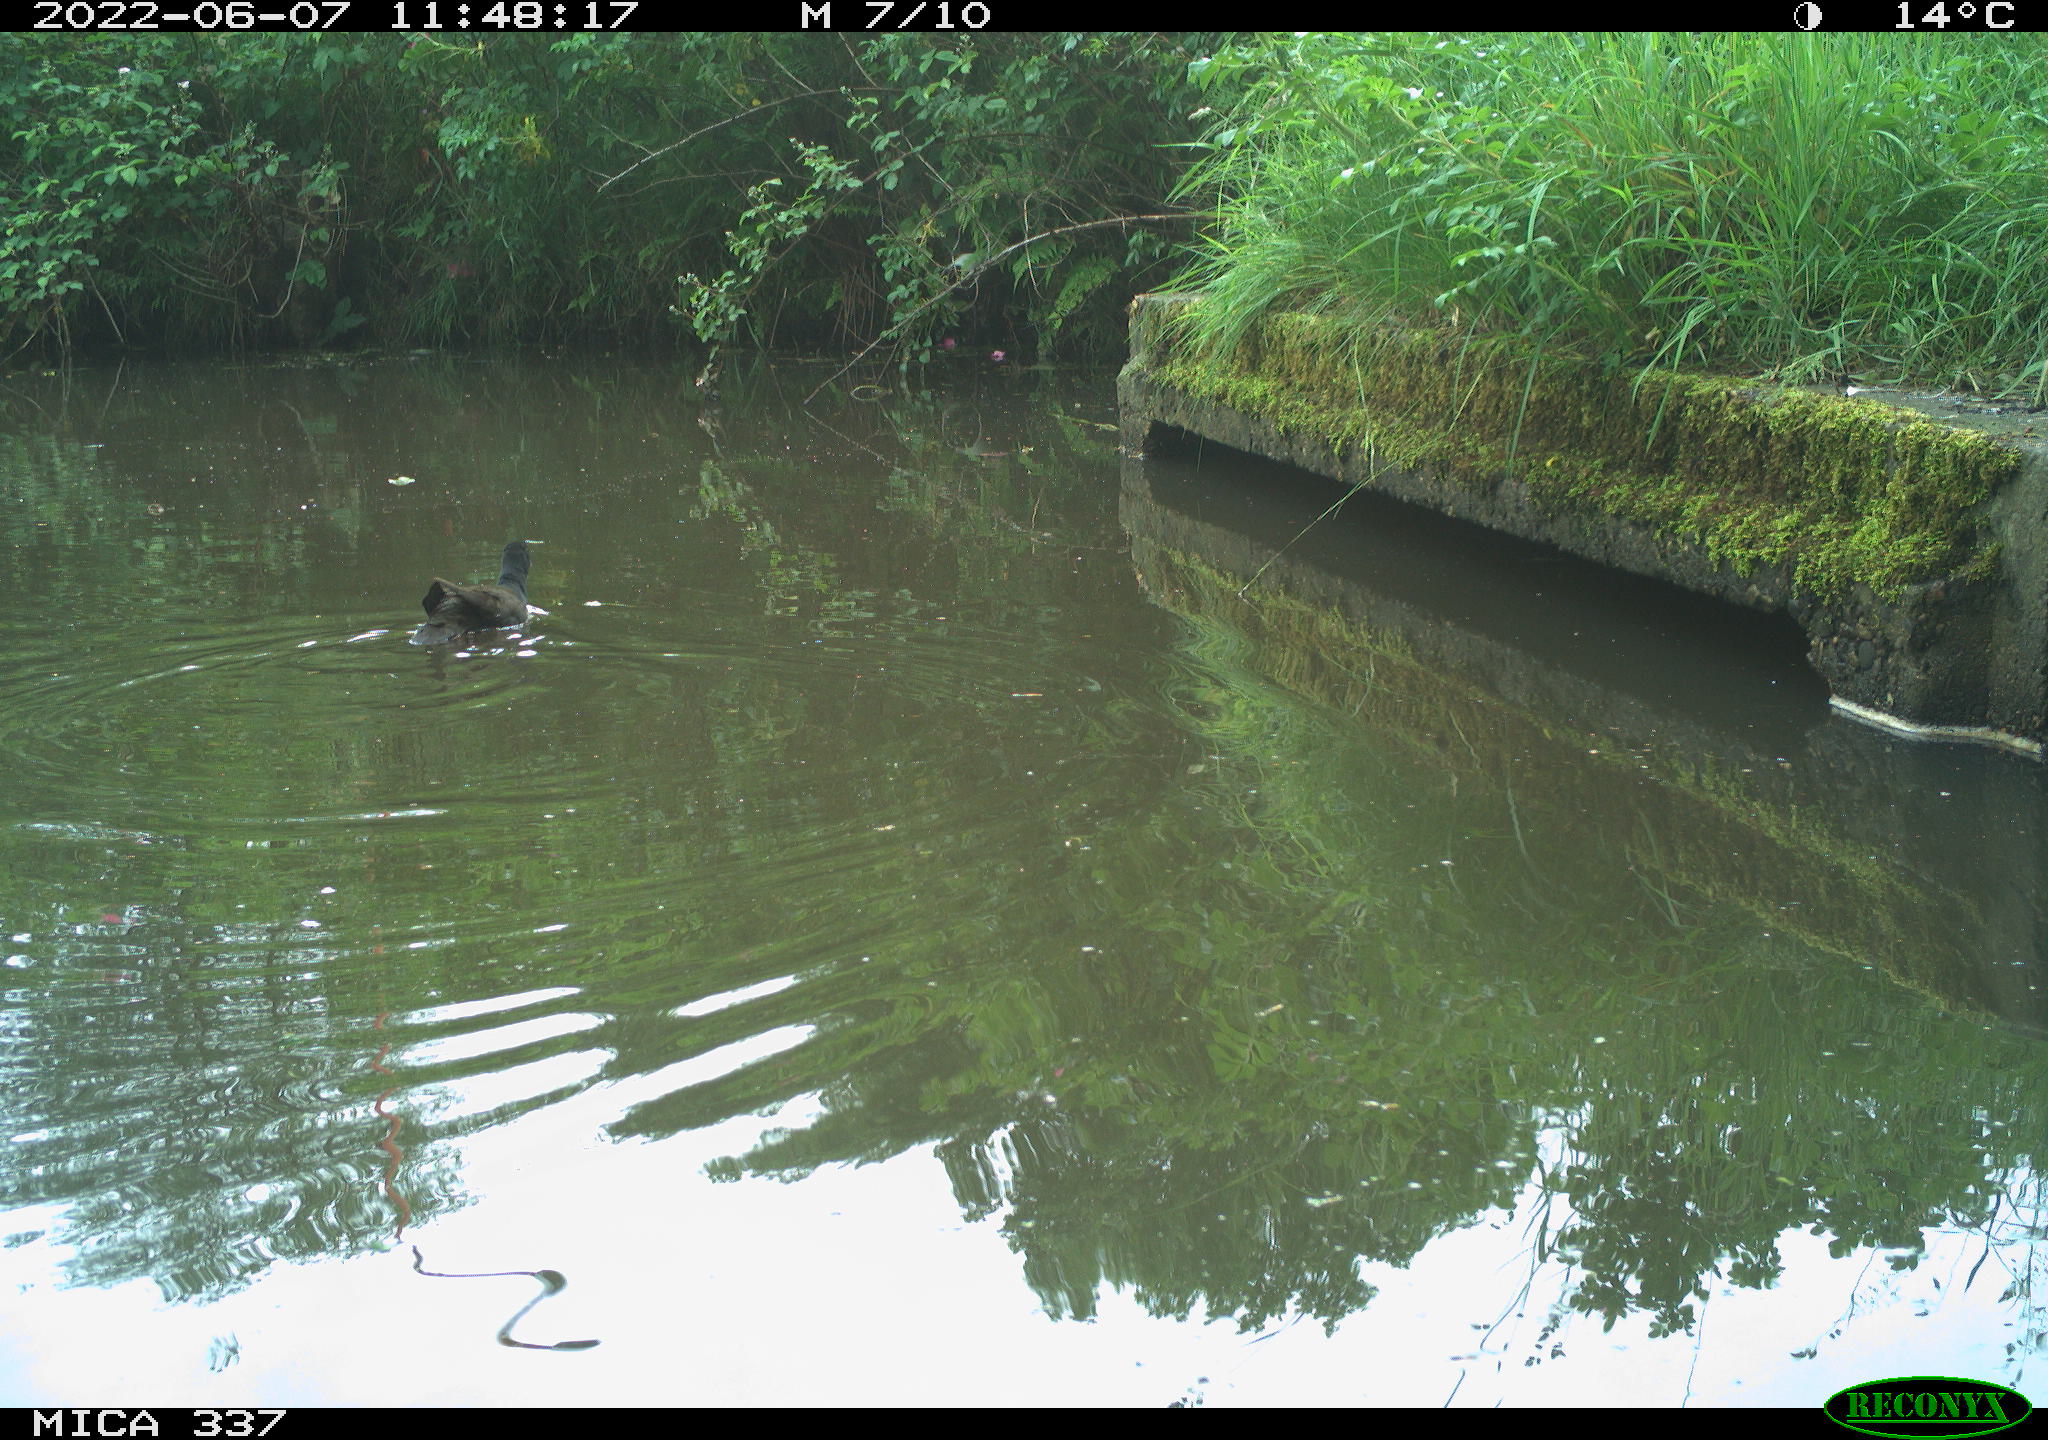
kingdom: Animalia
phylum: Chordata
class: Aves
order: Gruiformes
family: Rallidae
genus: Gallinula
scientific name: Gallinula chloropus
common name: Common moorhen
